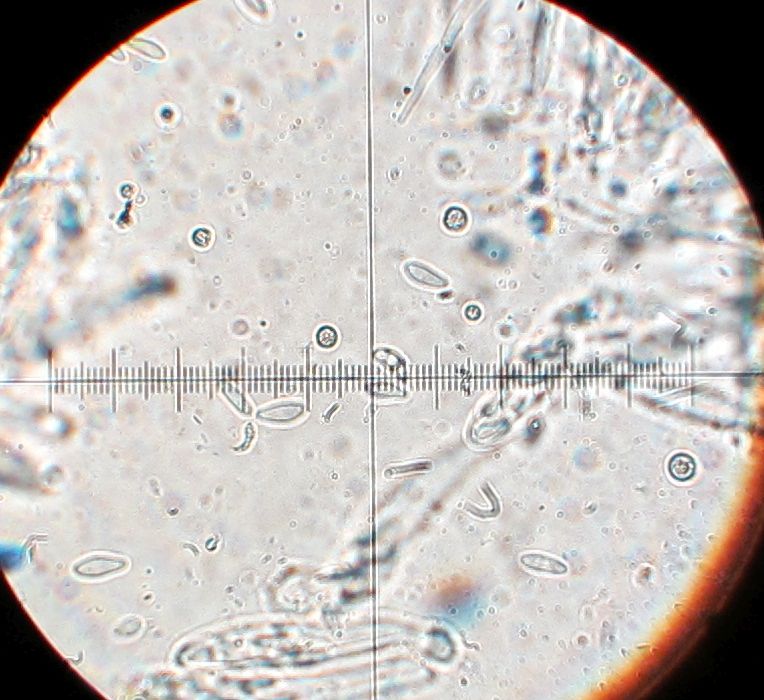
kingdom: Fungi
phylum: Ascomycota
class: Leotiomycetes
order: Helotiales
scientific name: Helotiales
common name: stilkskiveordenen
